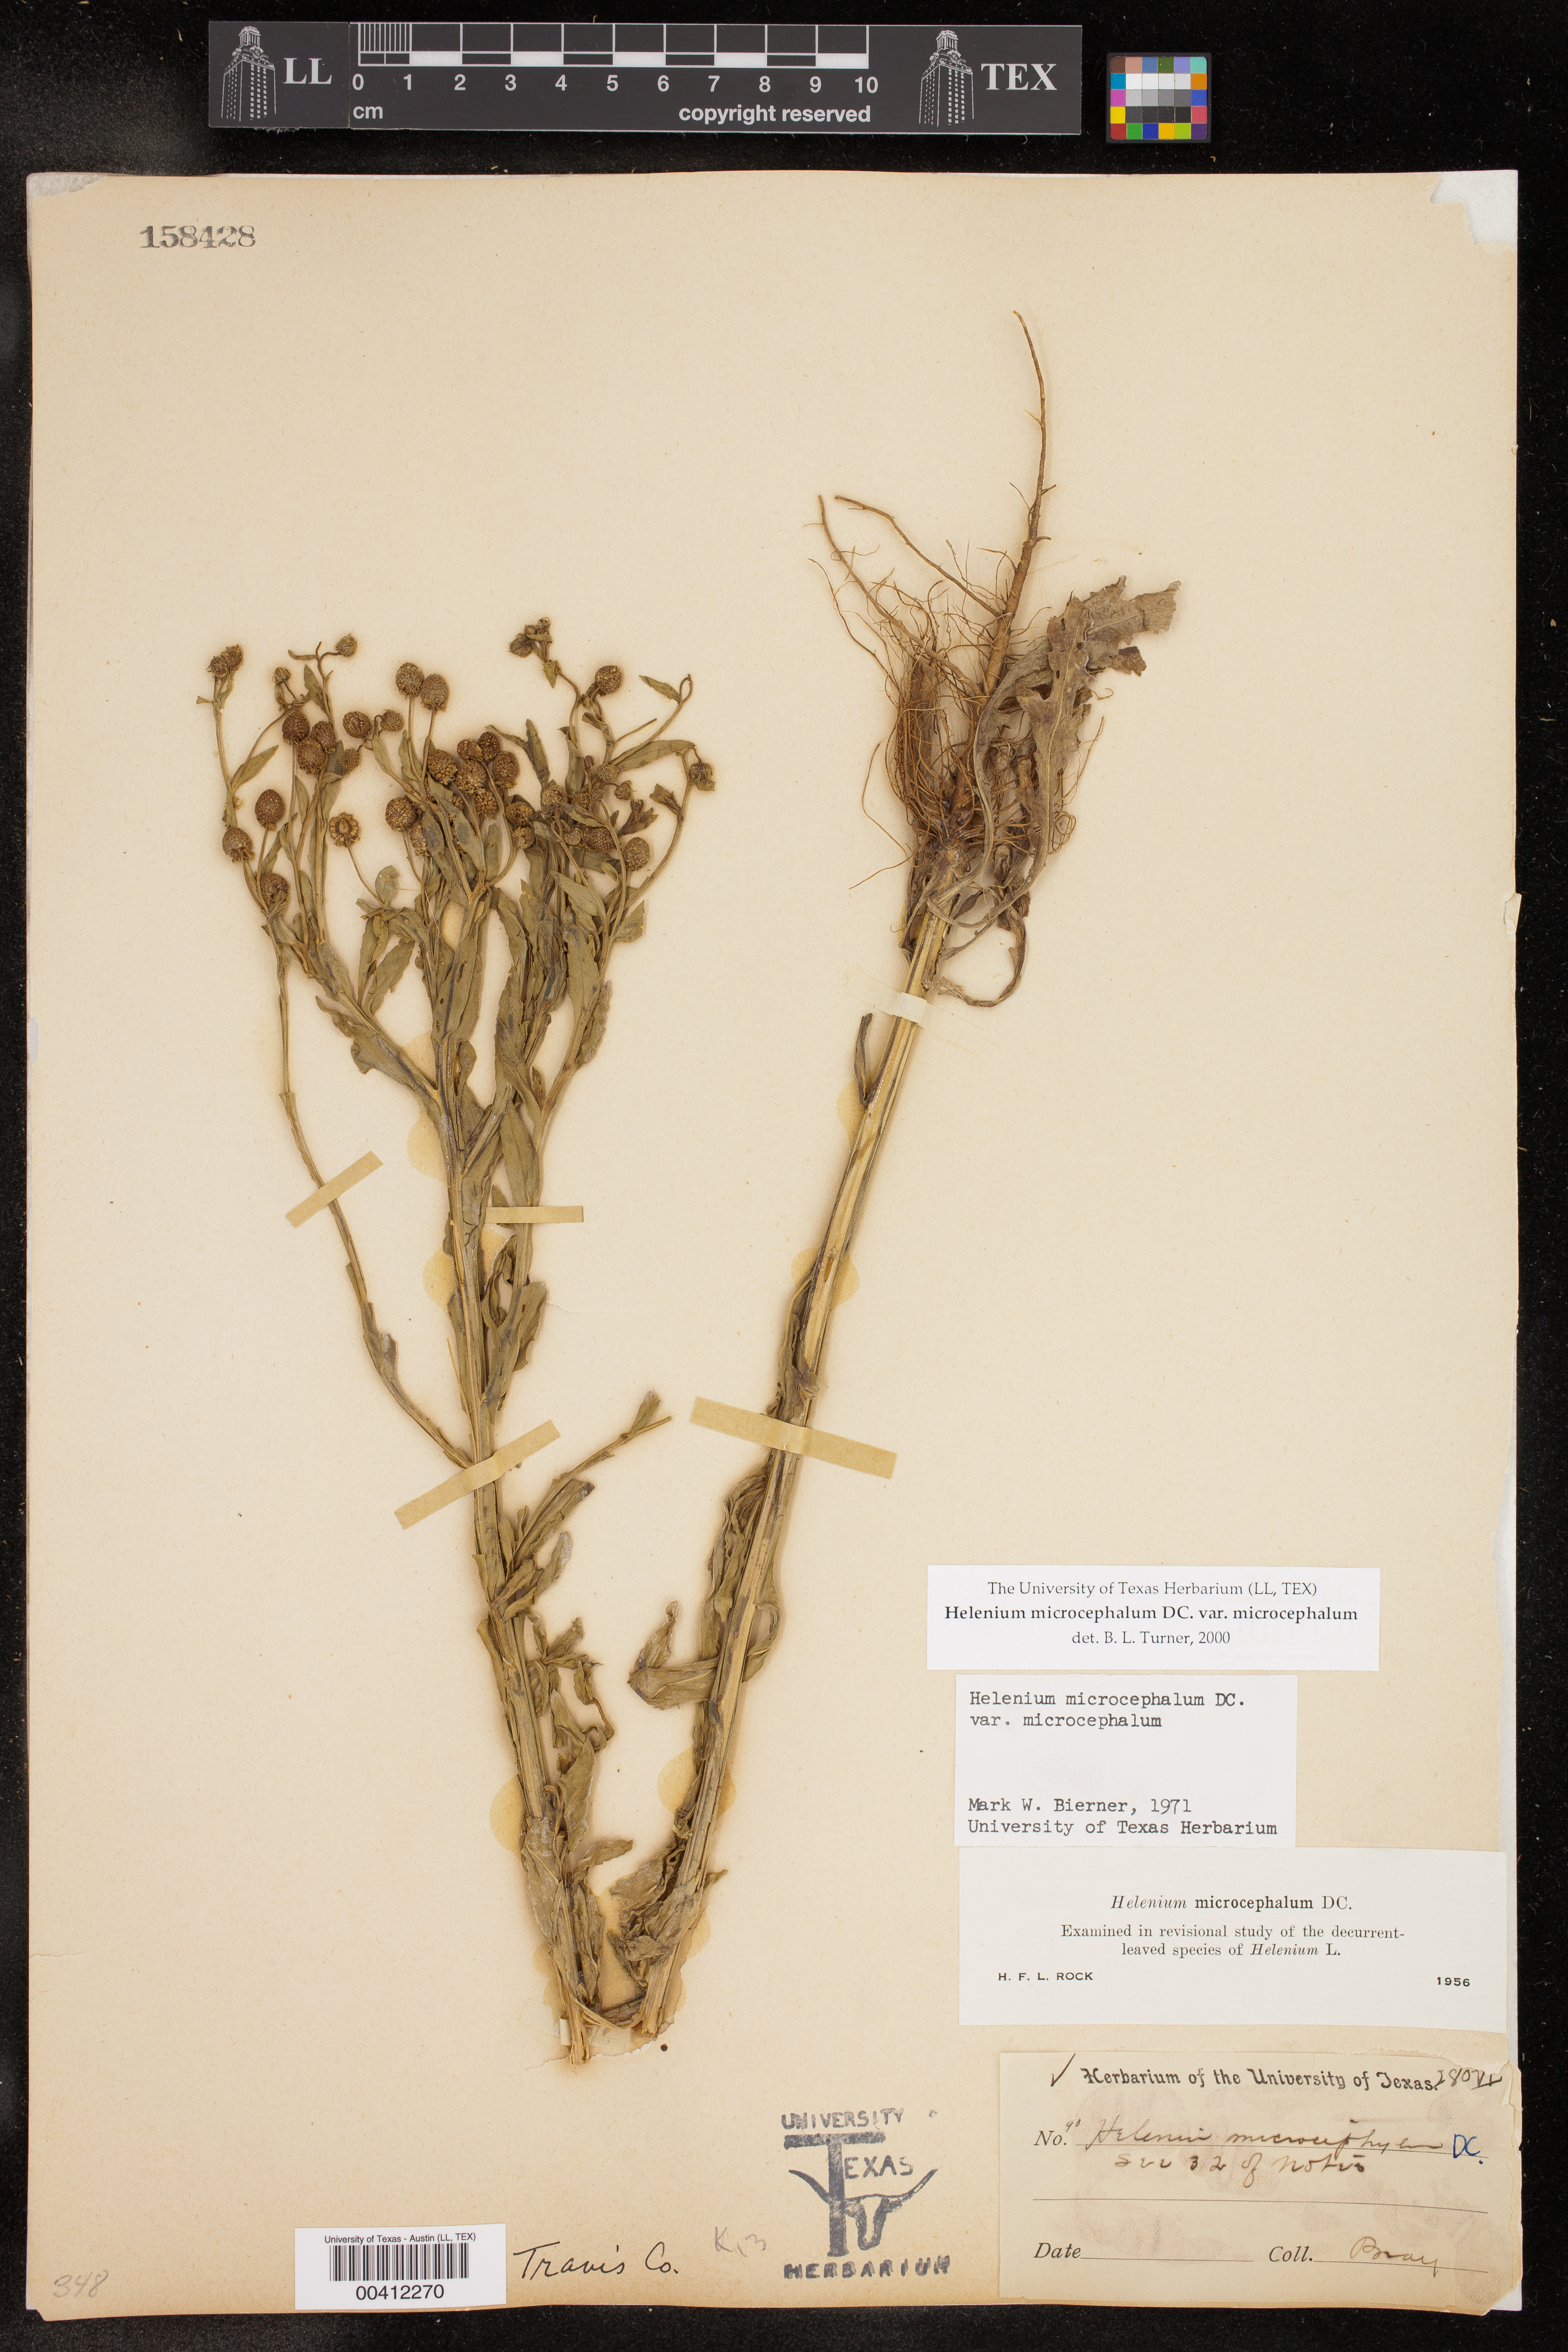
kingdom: Plantae
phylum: Tracheophyta
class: Magnoliopsida
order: Asterales
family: Asteraceae
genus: Helenium
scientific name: Helenium microcephalum
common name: Smallhead sneezeweed
